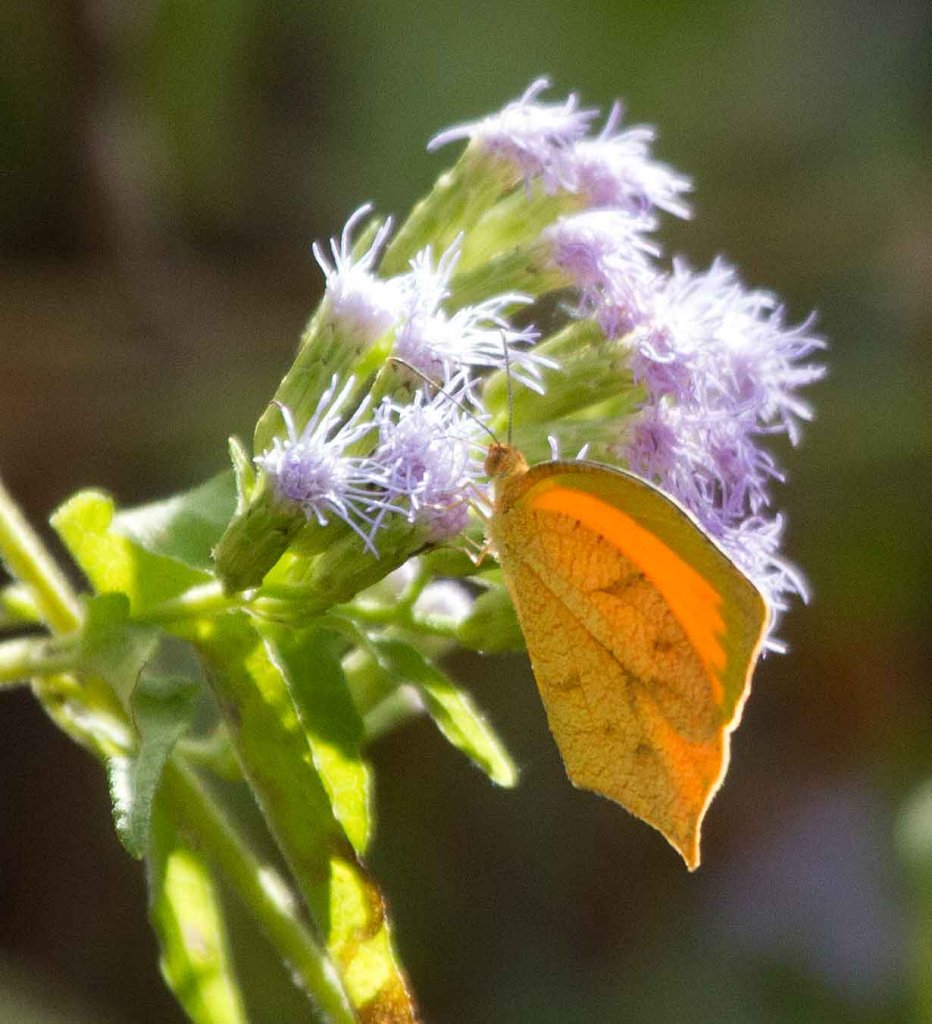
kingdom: Animalia
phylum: Arthropoda
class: Insecta
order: Lepidoptera
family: Pieridae
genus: Pyrisitia
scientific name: Pyrisitia proterpia
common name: Tailed Orange
